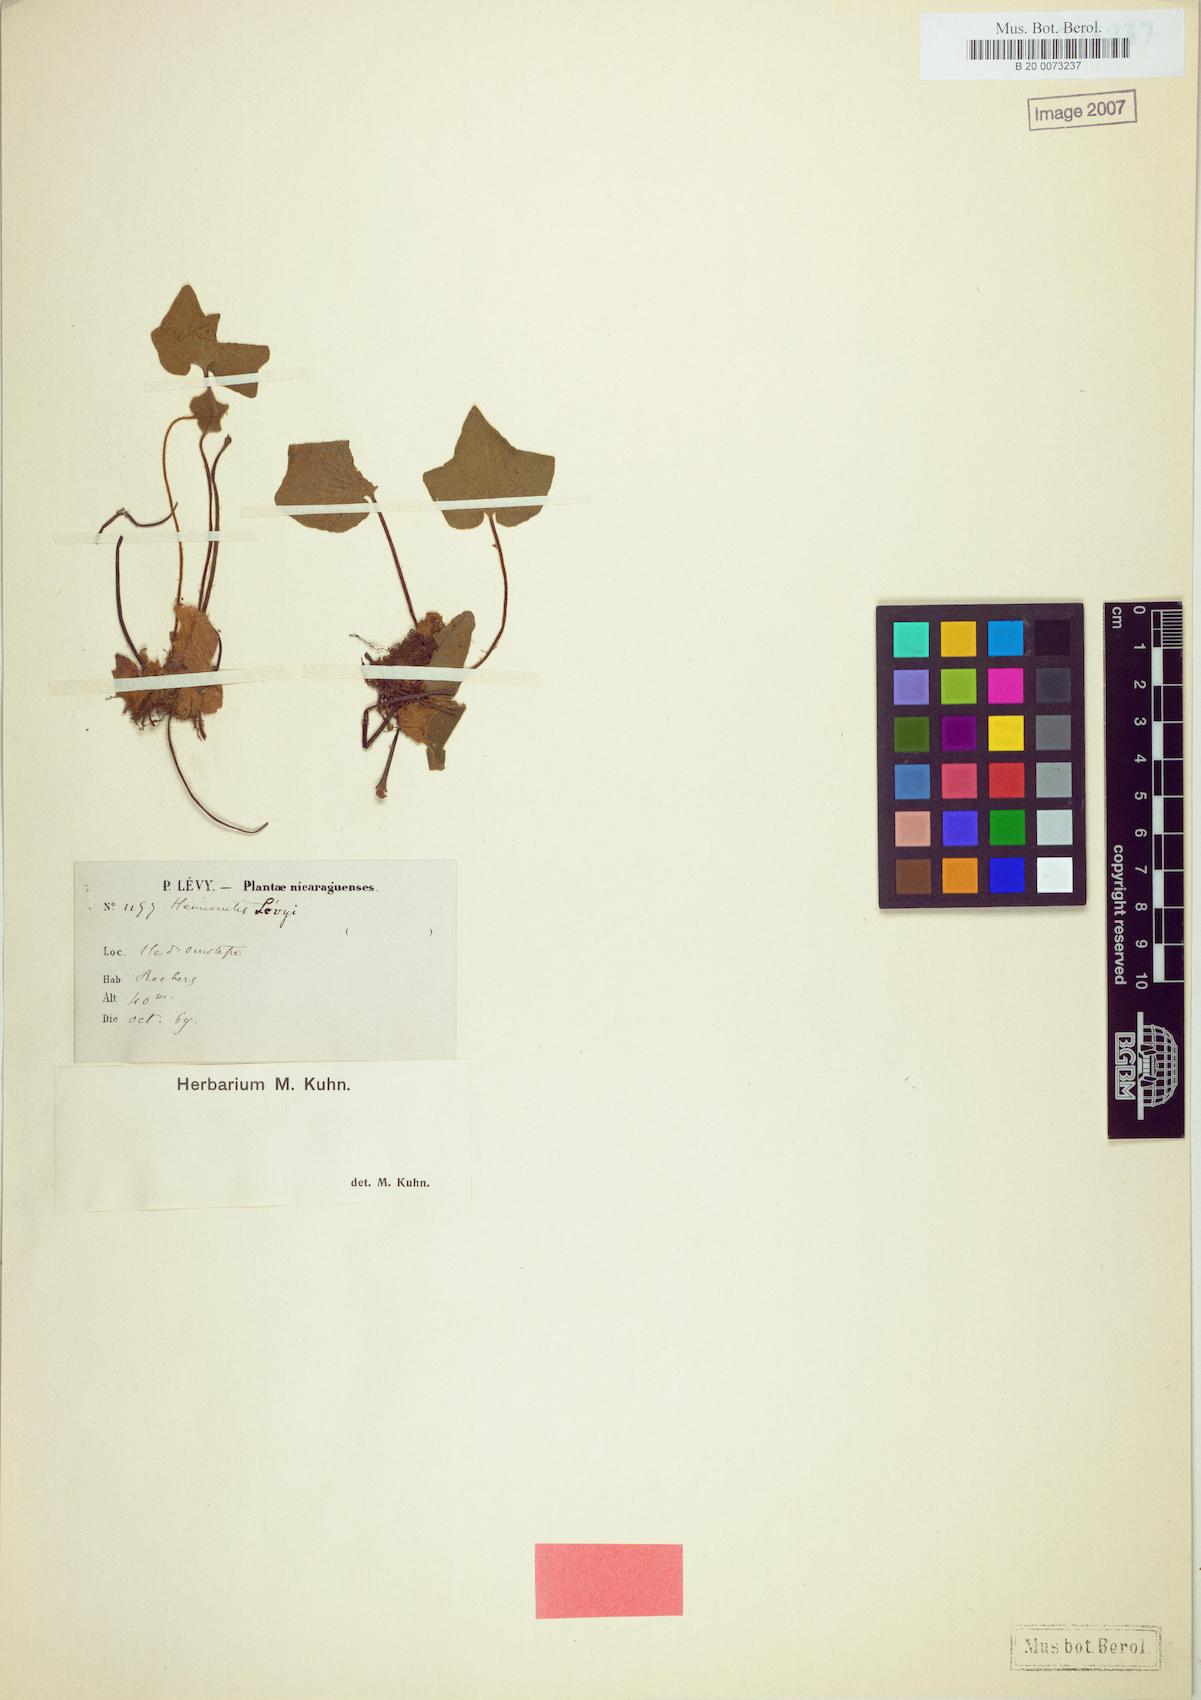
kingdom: Plantae
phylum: Tracheophyta
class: Polypodiopsida
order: Polypodiales
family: Pteridaceae
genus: Hemionitis
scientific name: Hemionitis levyi
